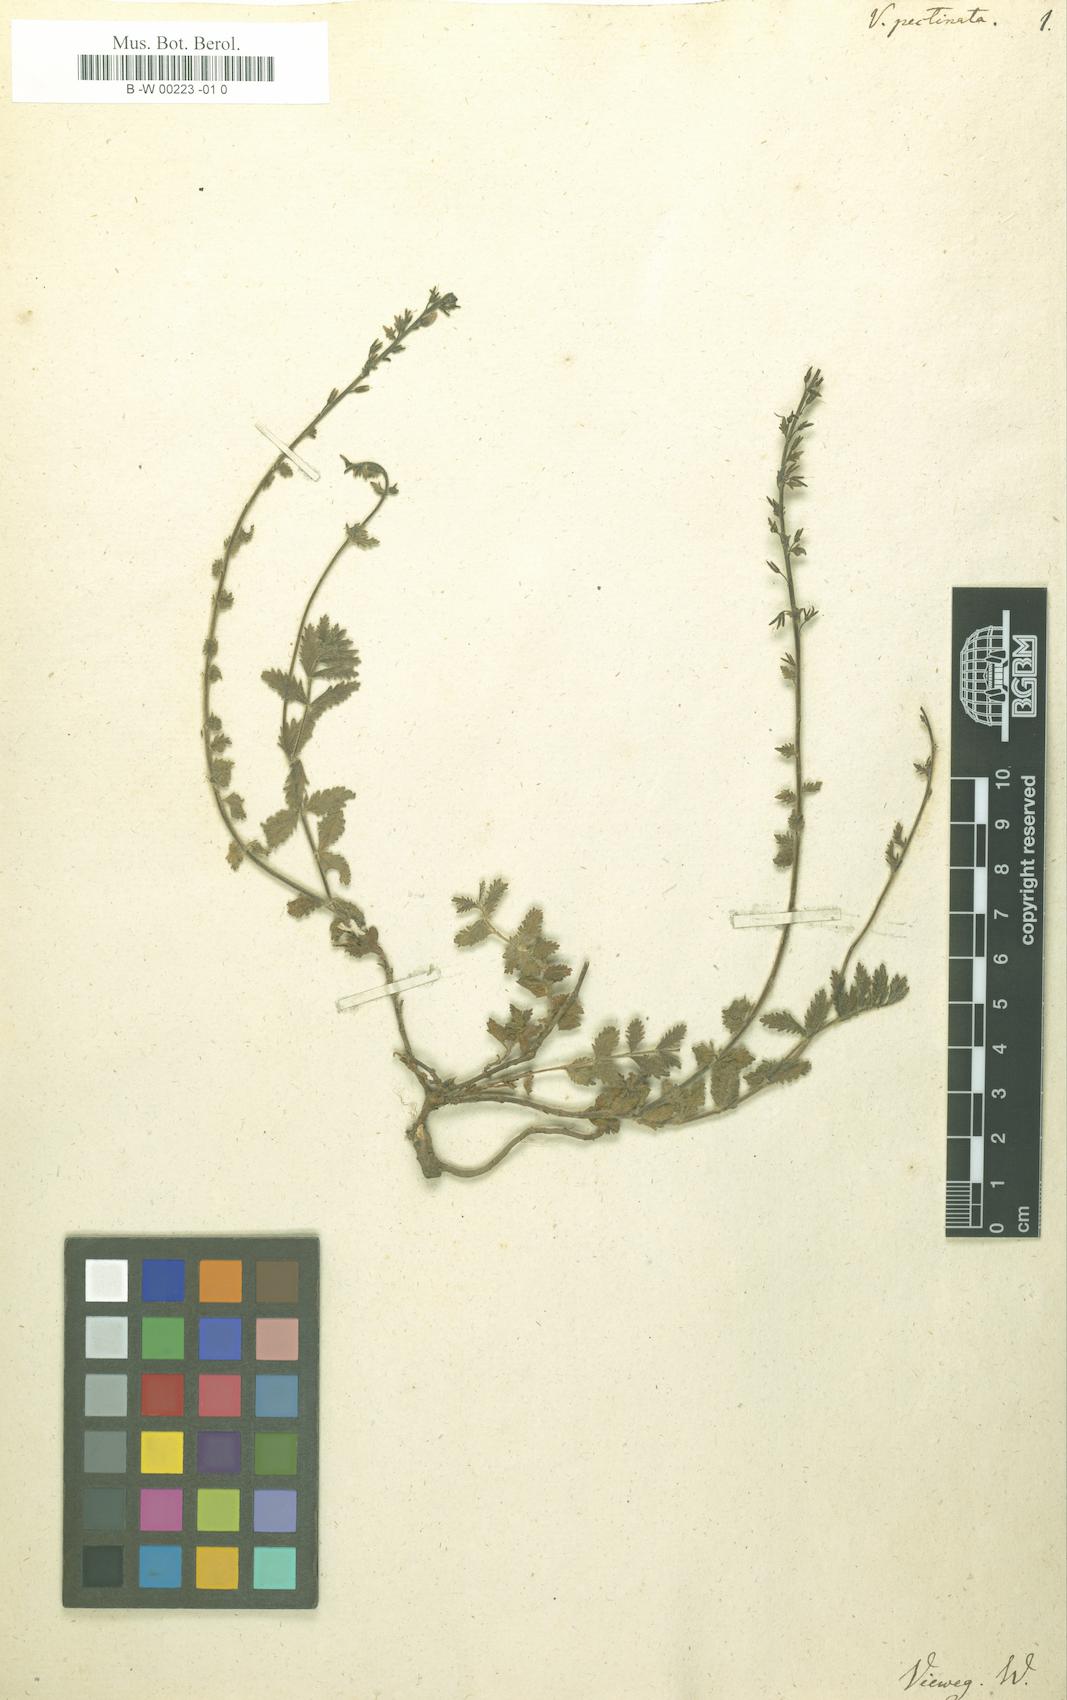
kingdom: Plantae
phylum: Tracheophyta
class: Magnoliopsida
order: Lamiales
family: Plantaginaceae
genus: Veronica
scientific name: Veronica pectinata
